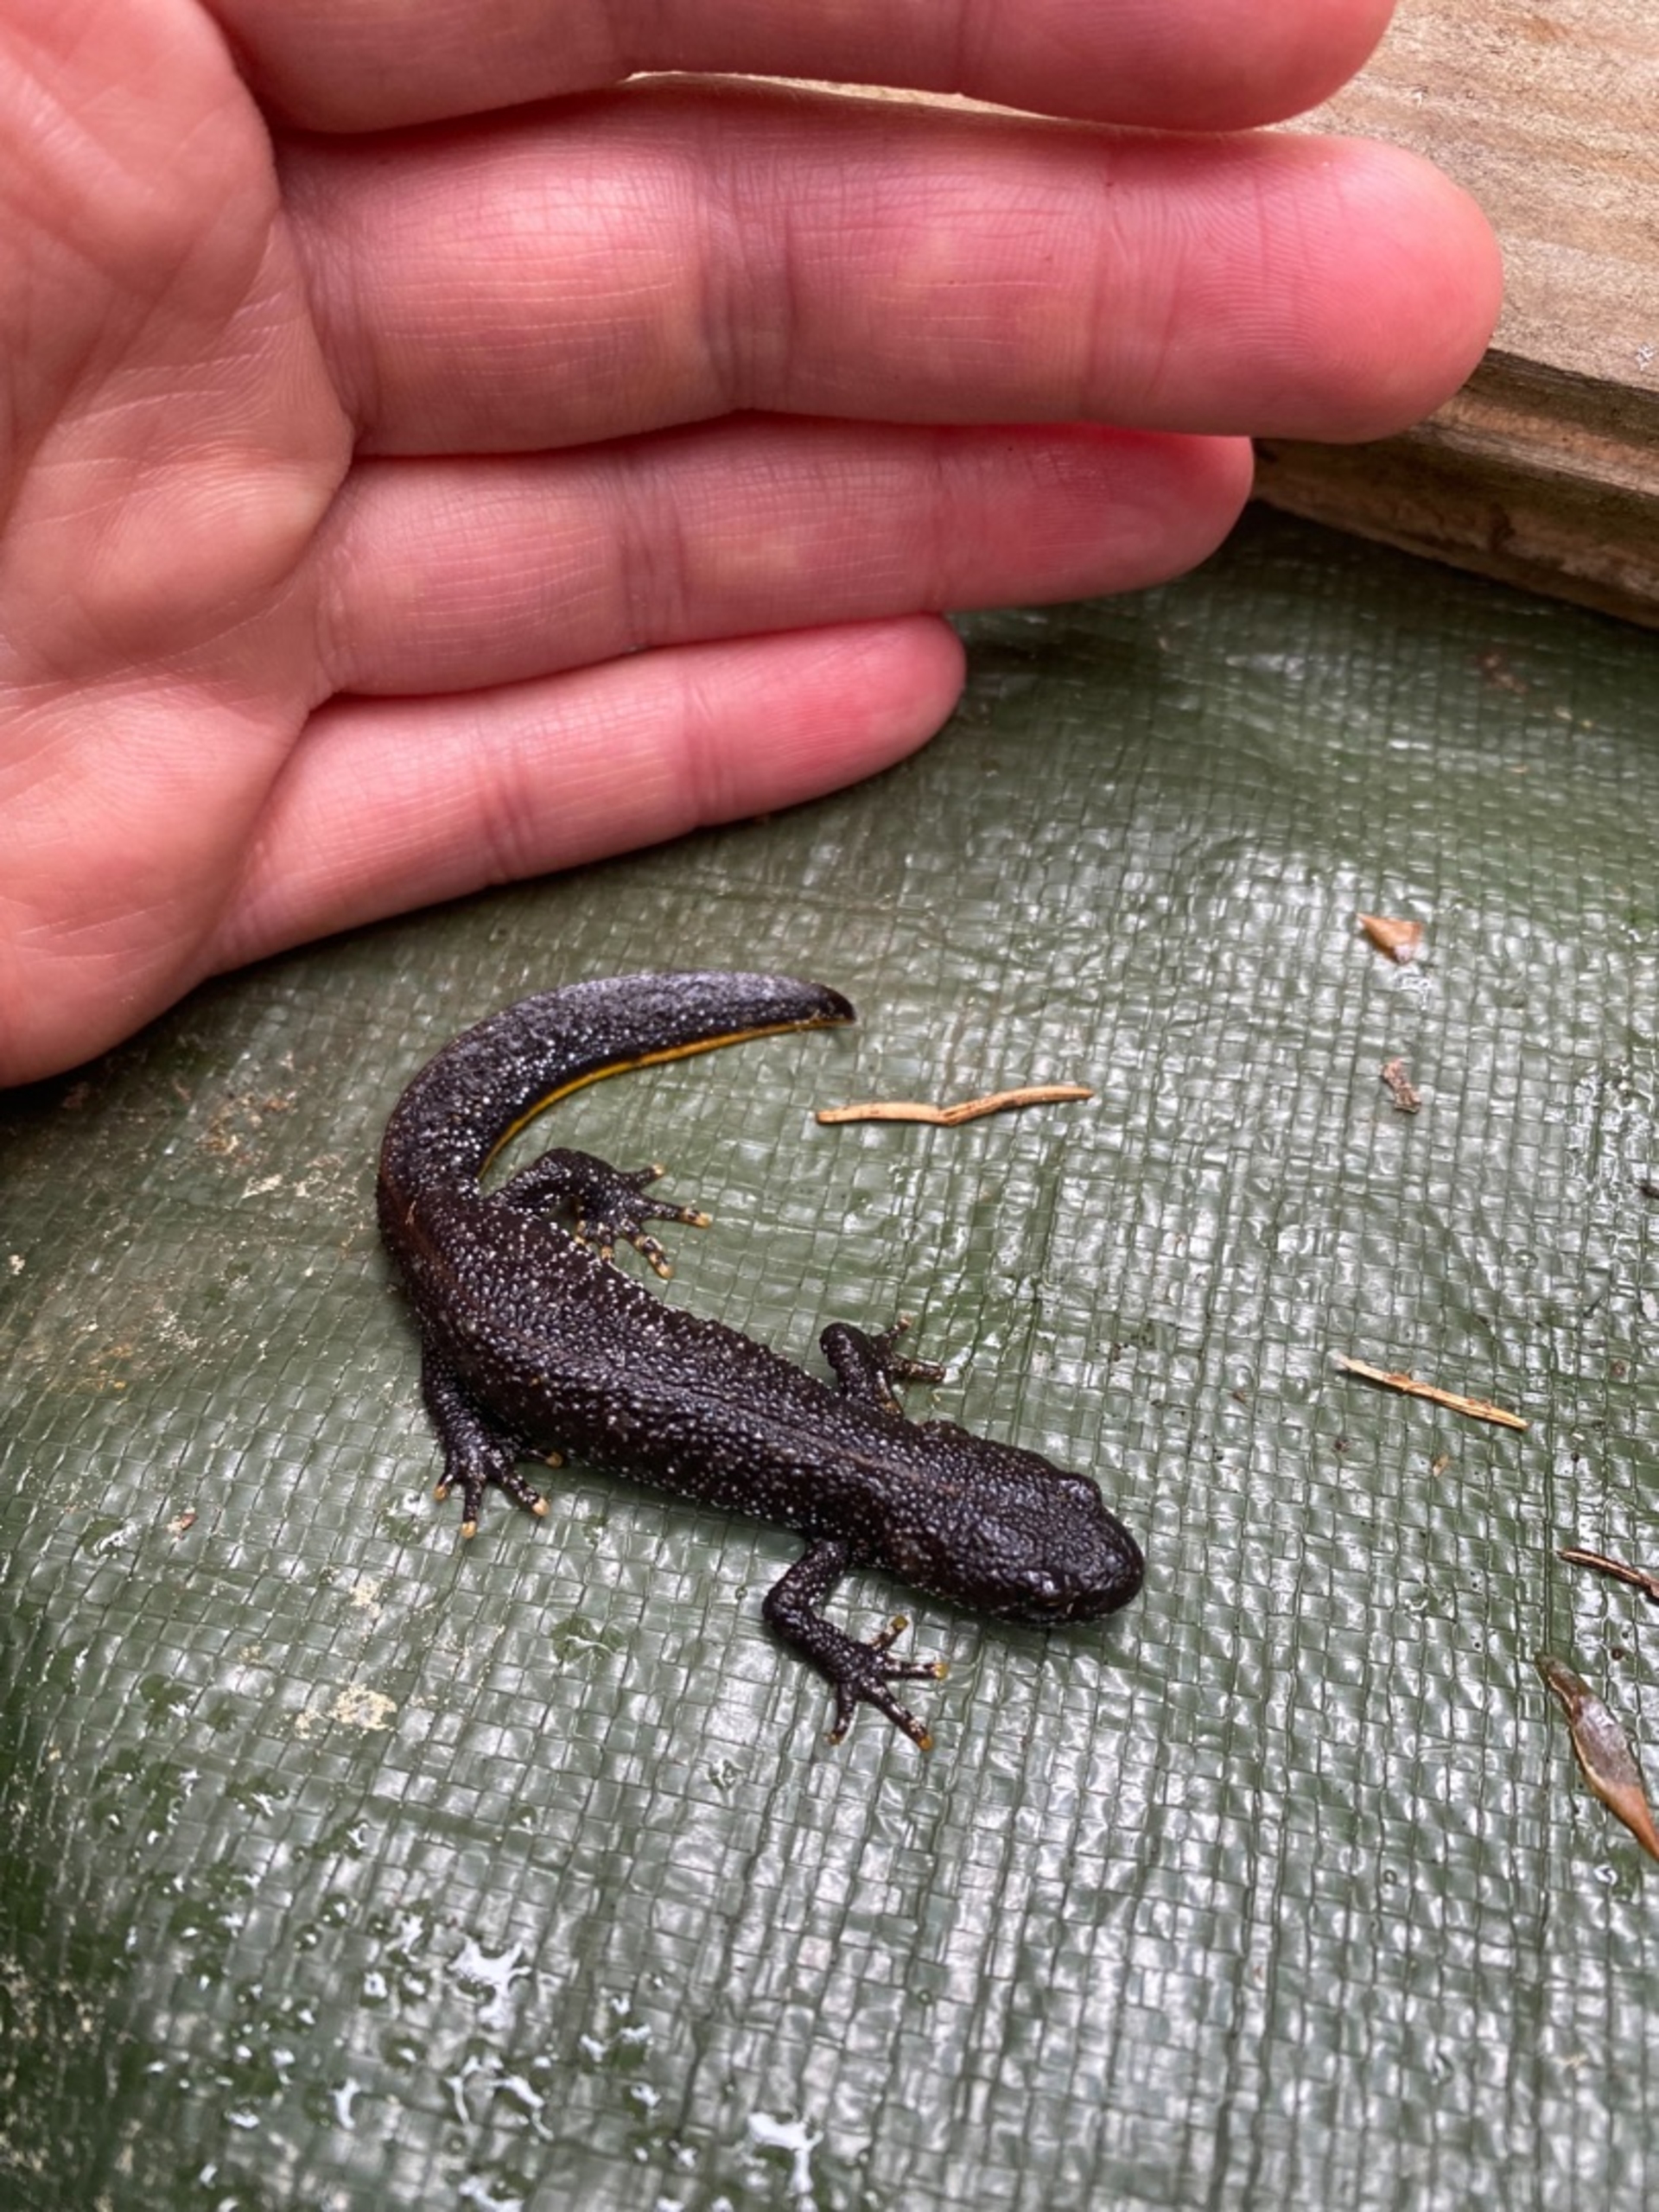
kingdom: Animalia
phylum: Chordata
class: Amphibia
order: Caudata
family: Salamandridae
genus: Triturus
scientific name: Triturus cristatus
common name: Stor vandsalamander
